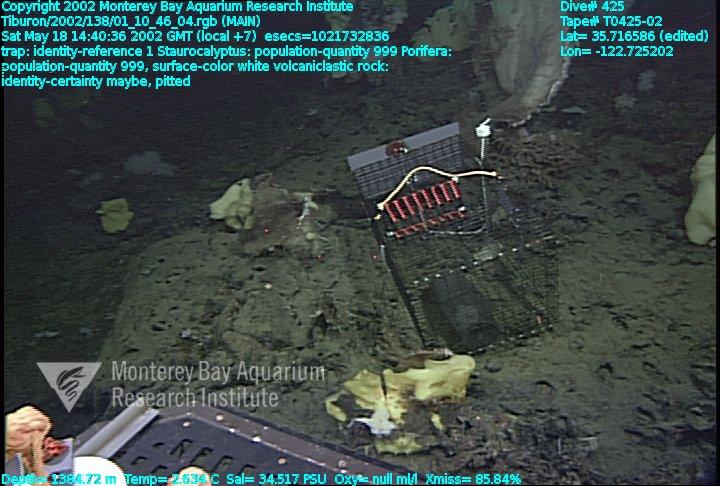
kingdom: Animalia
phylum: Porifera
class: Hexactinellida
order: Lyssacinosida
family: Rossellidae
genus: Staurocalyptus
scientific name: Staurocalyptus
